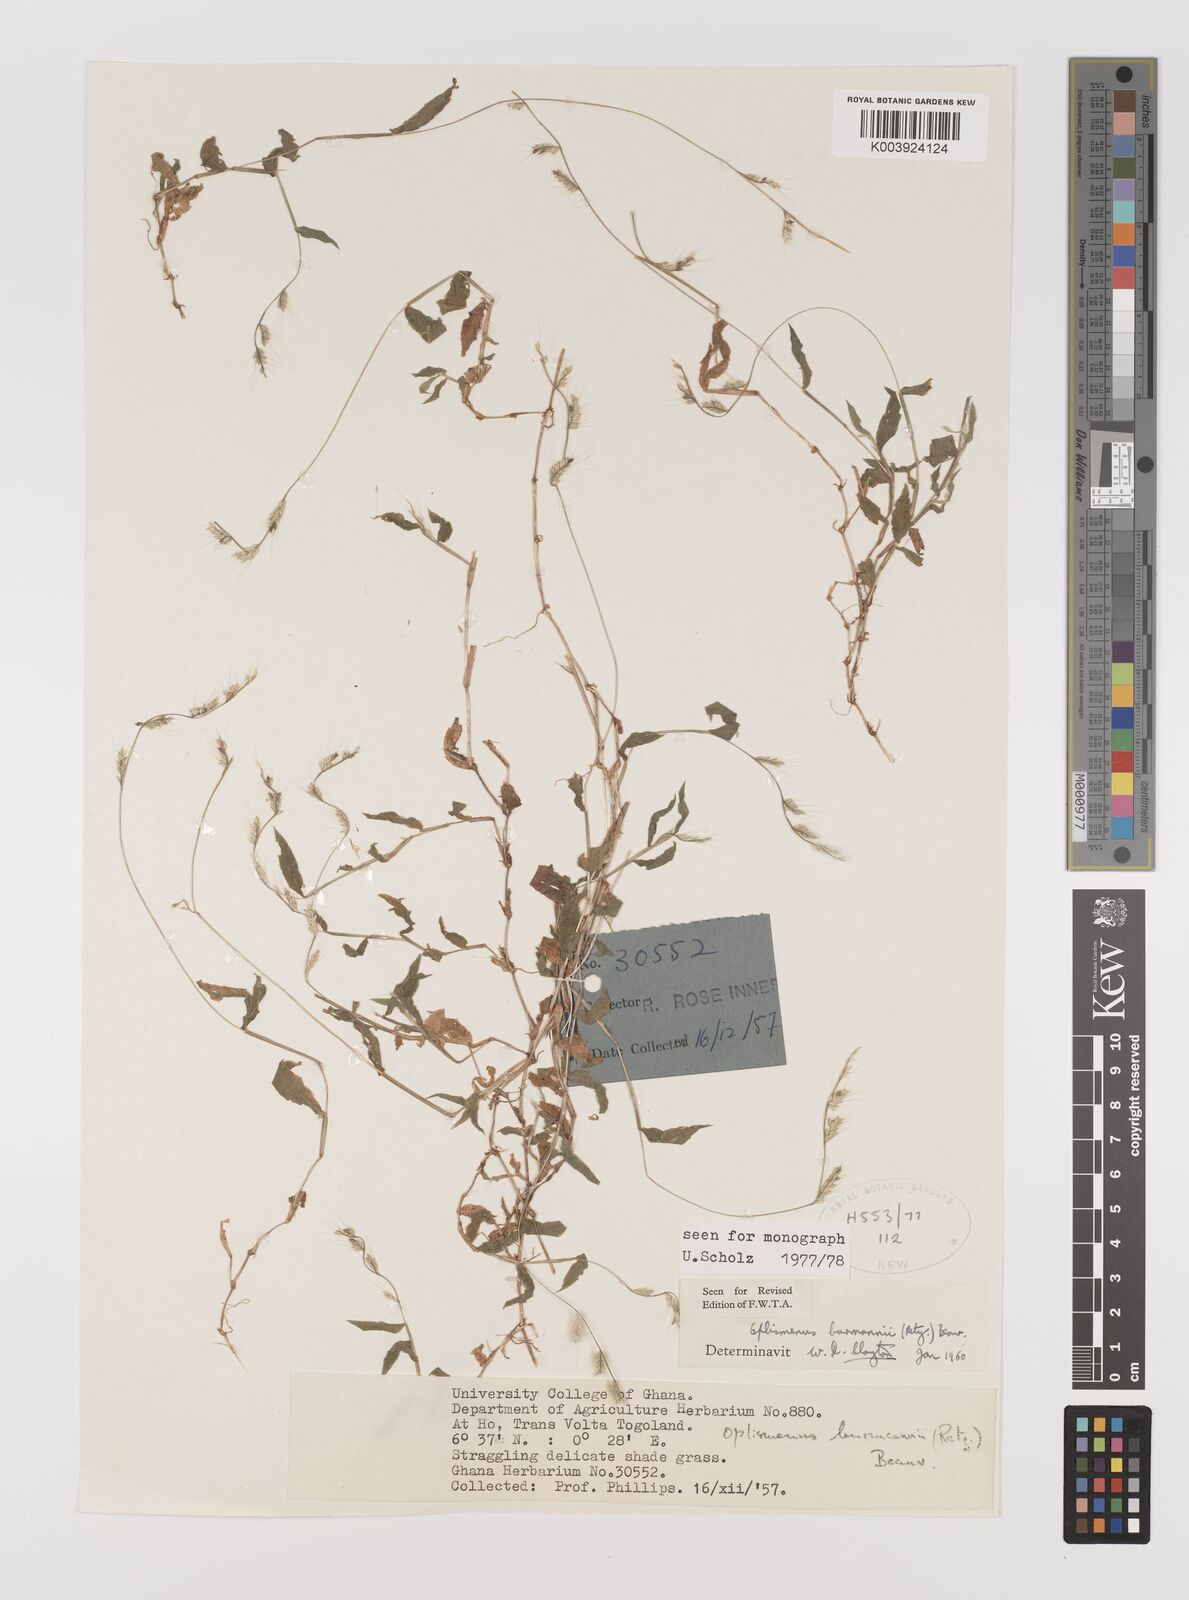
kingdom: Plantae
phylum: Tracheophyta
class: Liliopsida
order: Poales
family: Poaceae
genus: Oplismenus
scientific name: Oplismenus burmanni
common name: Burmann's basketgrass
